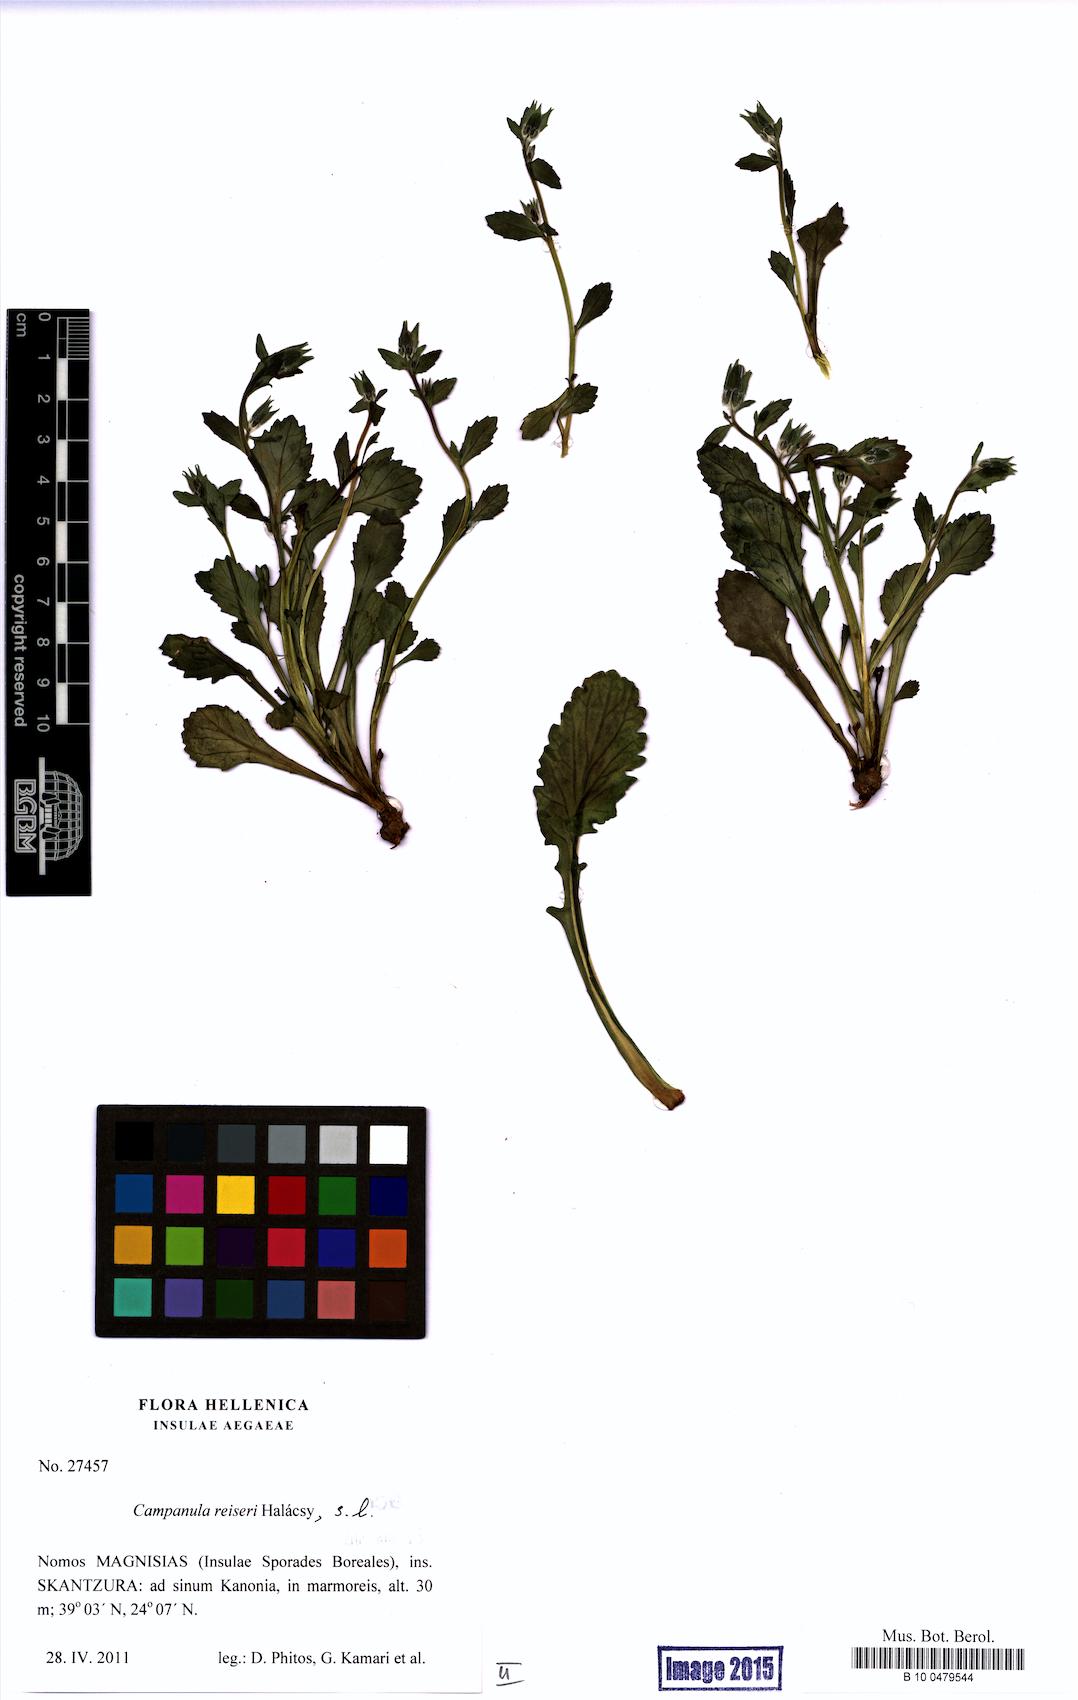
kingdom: Plantae
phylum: Tracheophyta
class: Magnoliopsida
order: Asterales
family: Campanulaceae
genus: Campanula
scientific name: Campanula reiseri
